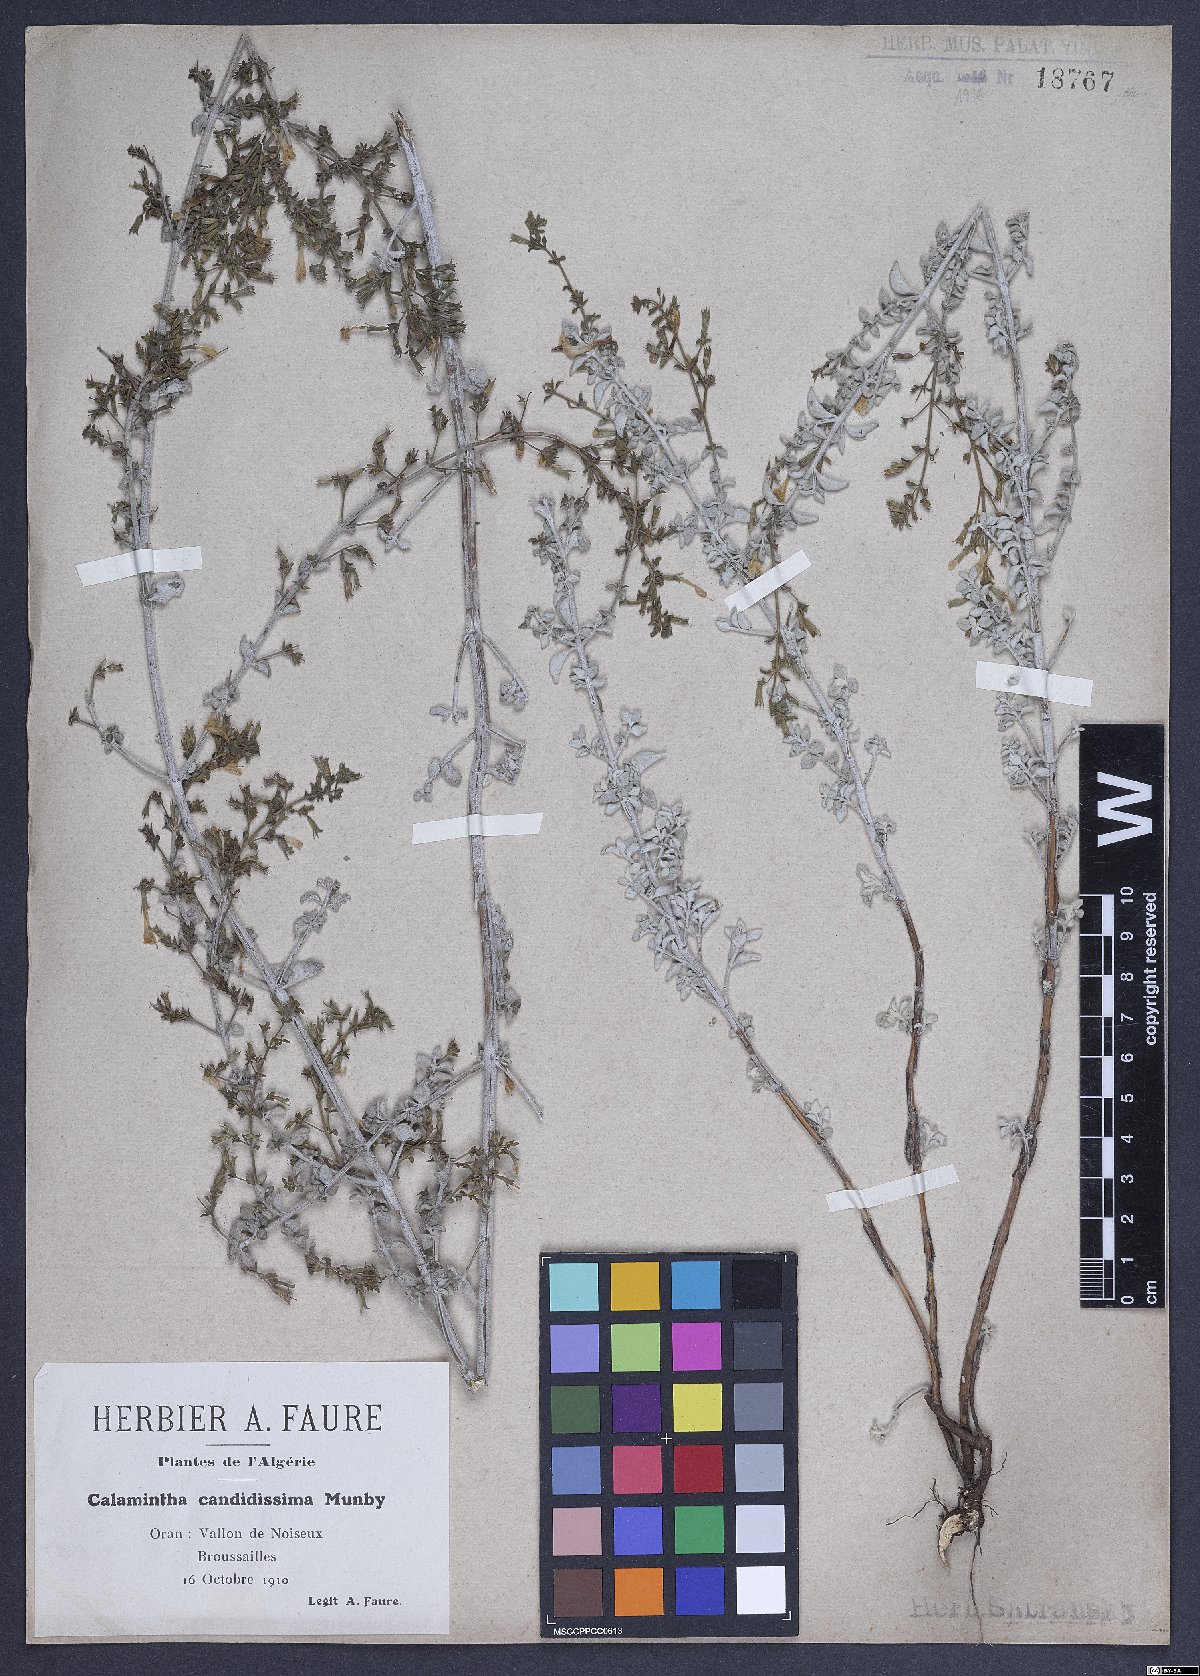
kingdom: Plantae
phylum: Tracheophyta
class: Magnoliopsida
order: Lamiales
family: Lamiaceae
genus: Calamintha
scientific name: Calamintha
